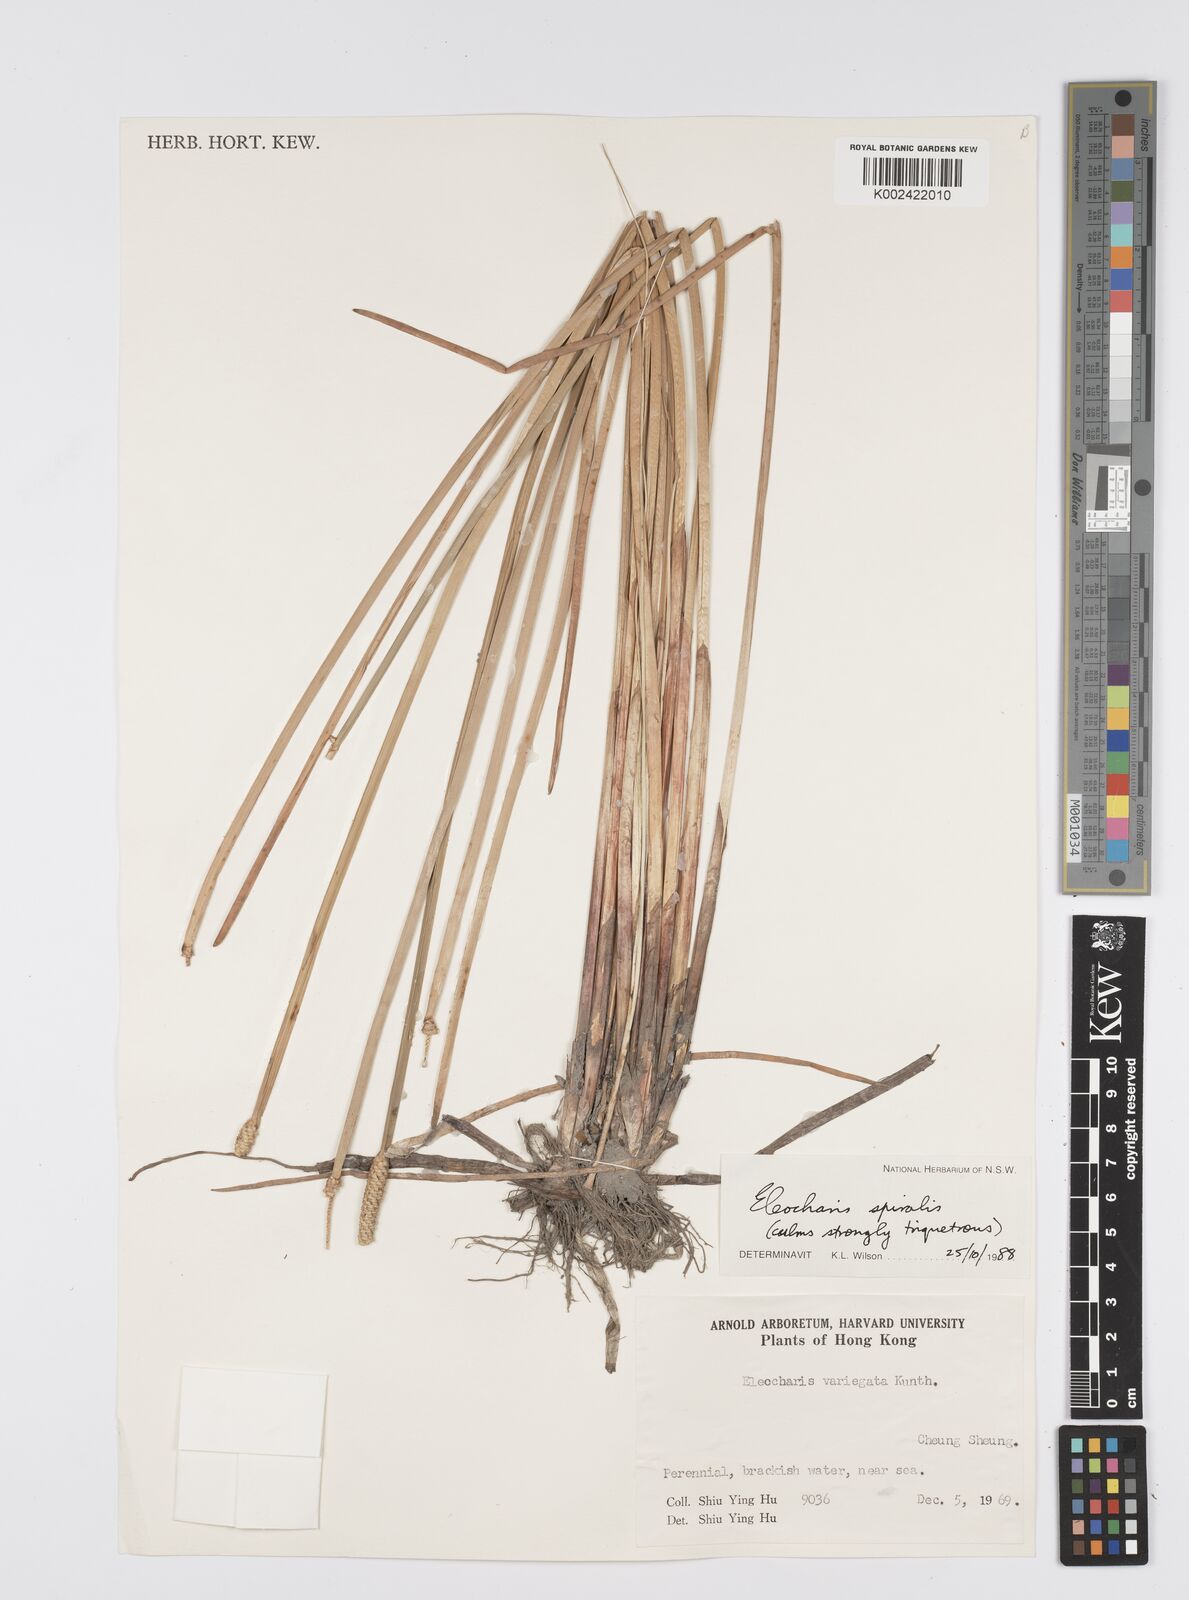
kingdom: Plantae
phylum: Tracheophyta
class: Liliopsida
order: Poales
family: Cyperaceae
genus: Eleocharis
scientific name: Eleocharis spiralis
